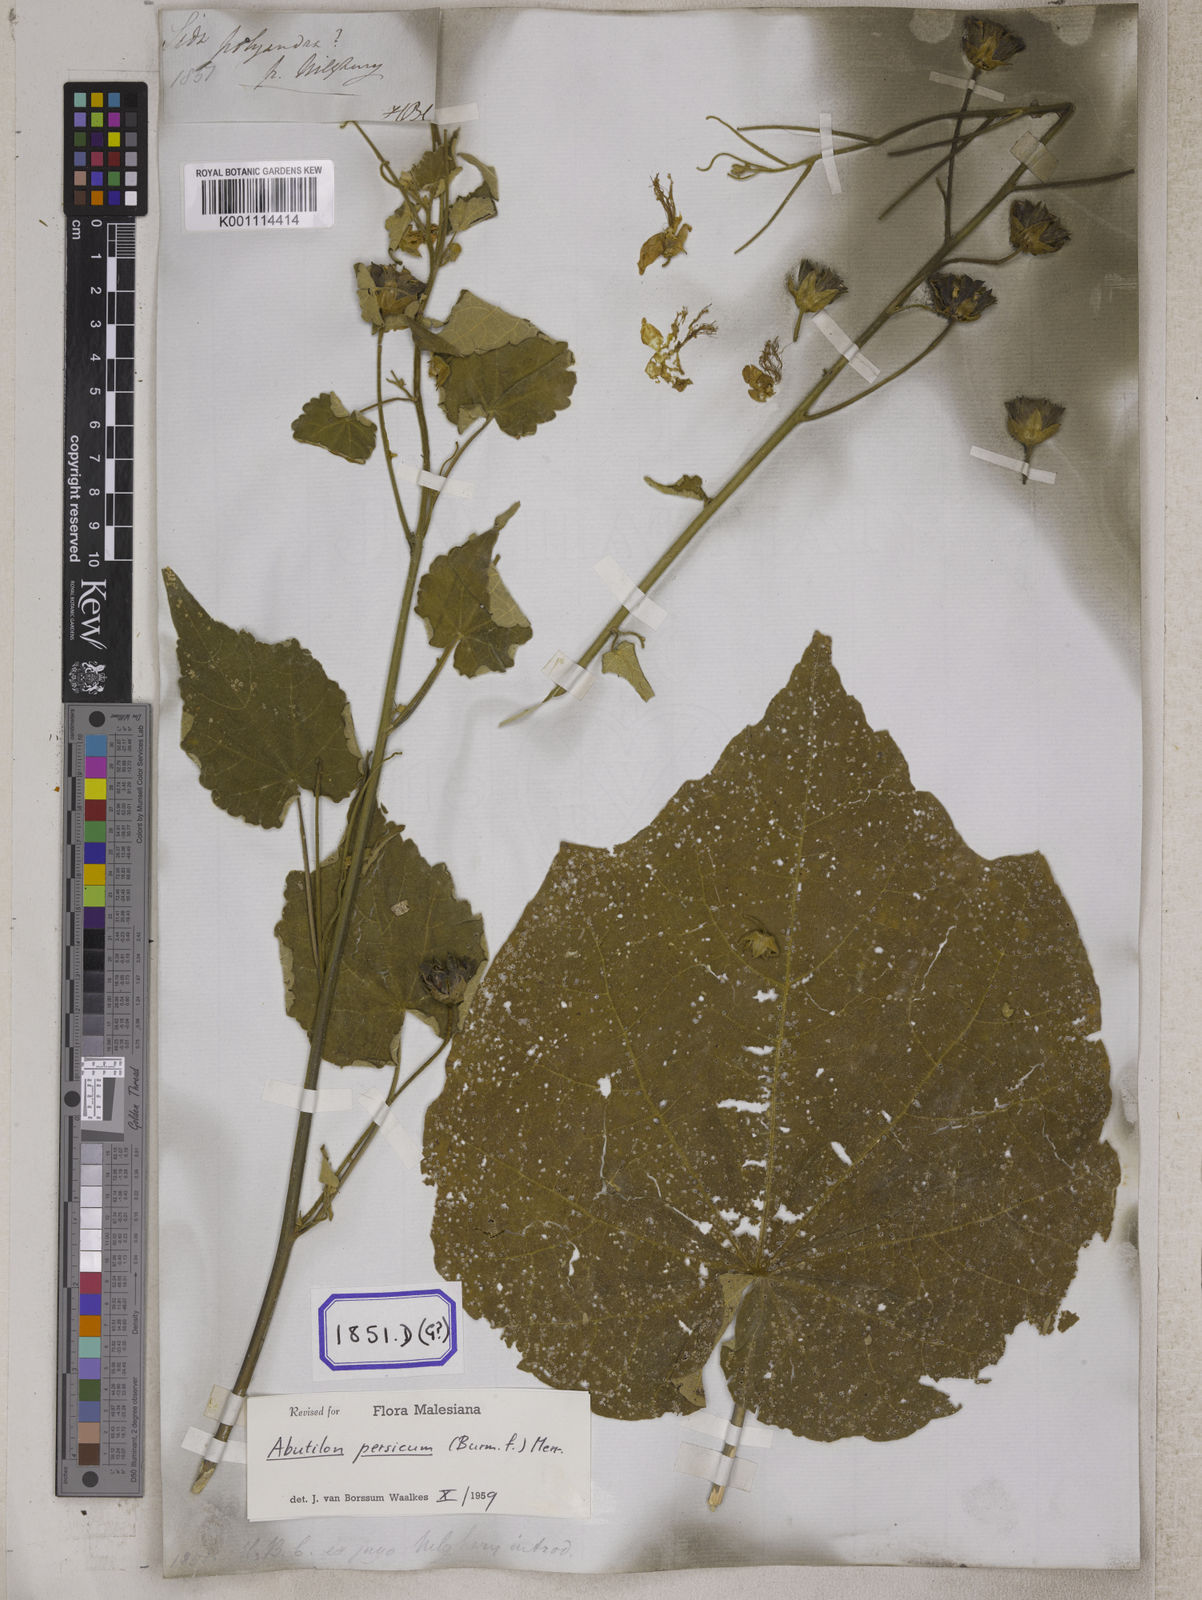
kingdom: Plantae
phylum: Tracheophyta
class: Magnoliopsida
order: Malvales
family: Malvaceae
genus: Abutilon
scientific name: Abutilon persicum
